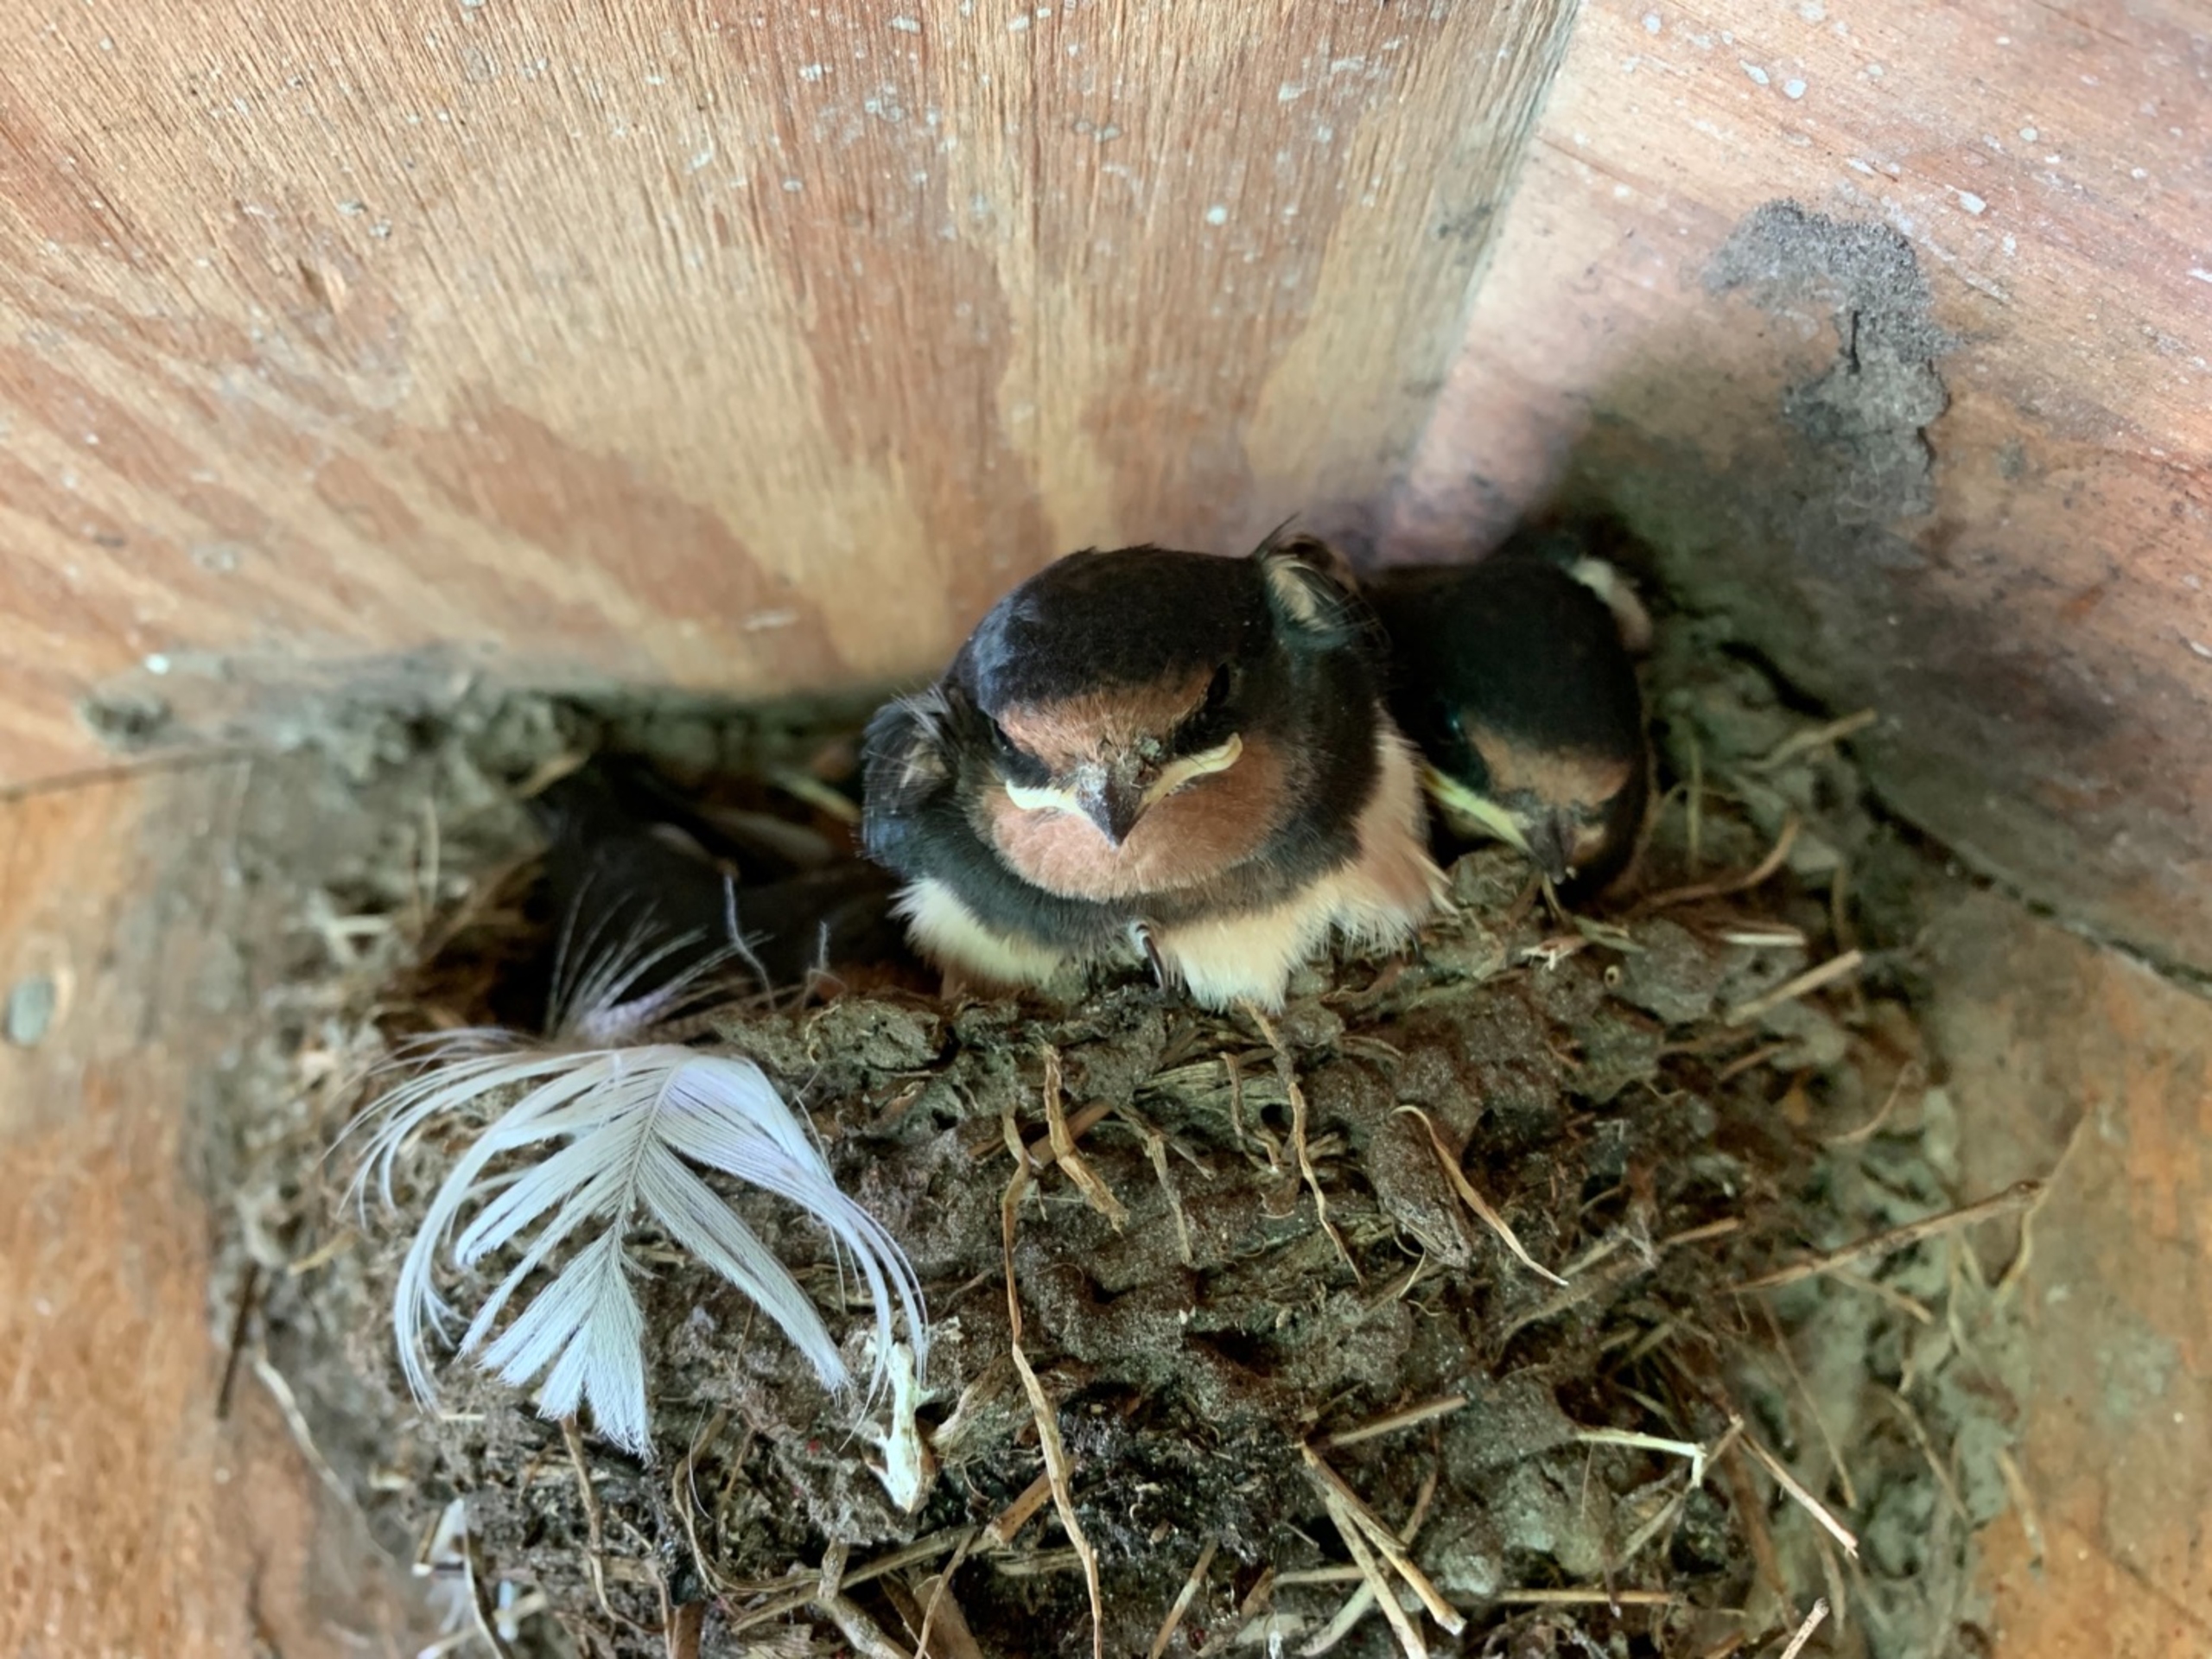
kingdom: Animalia
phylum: Chordata
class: Aves
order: Passeriformes
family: Hirundinidae
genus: Hirundo
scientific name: Hirundo rustica
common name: Landsvale
